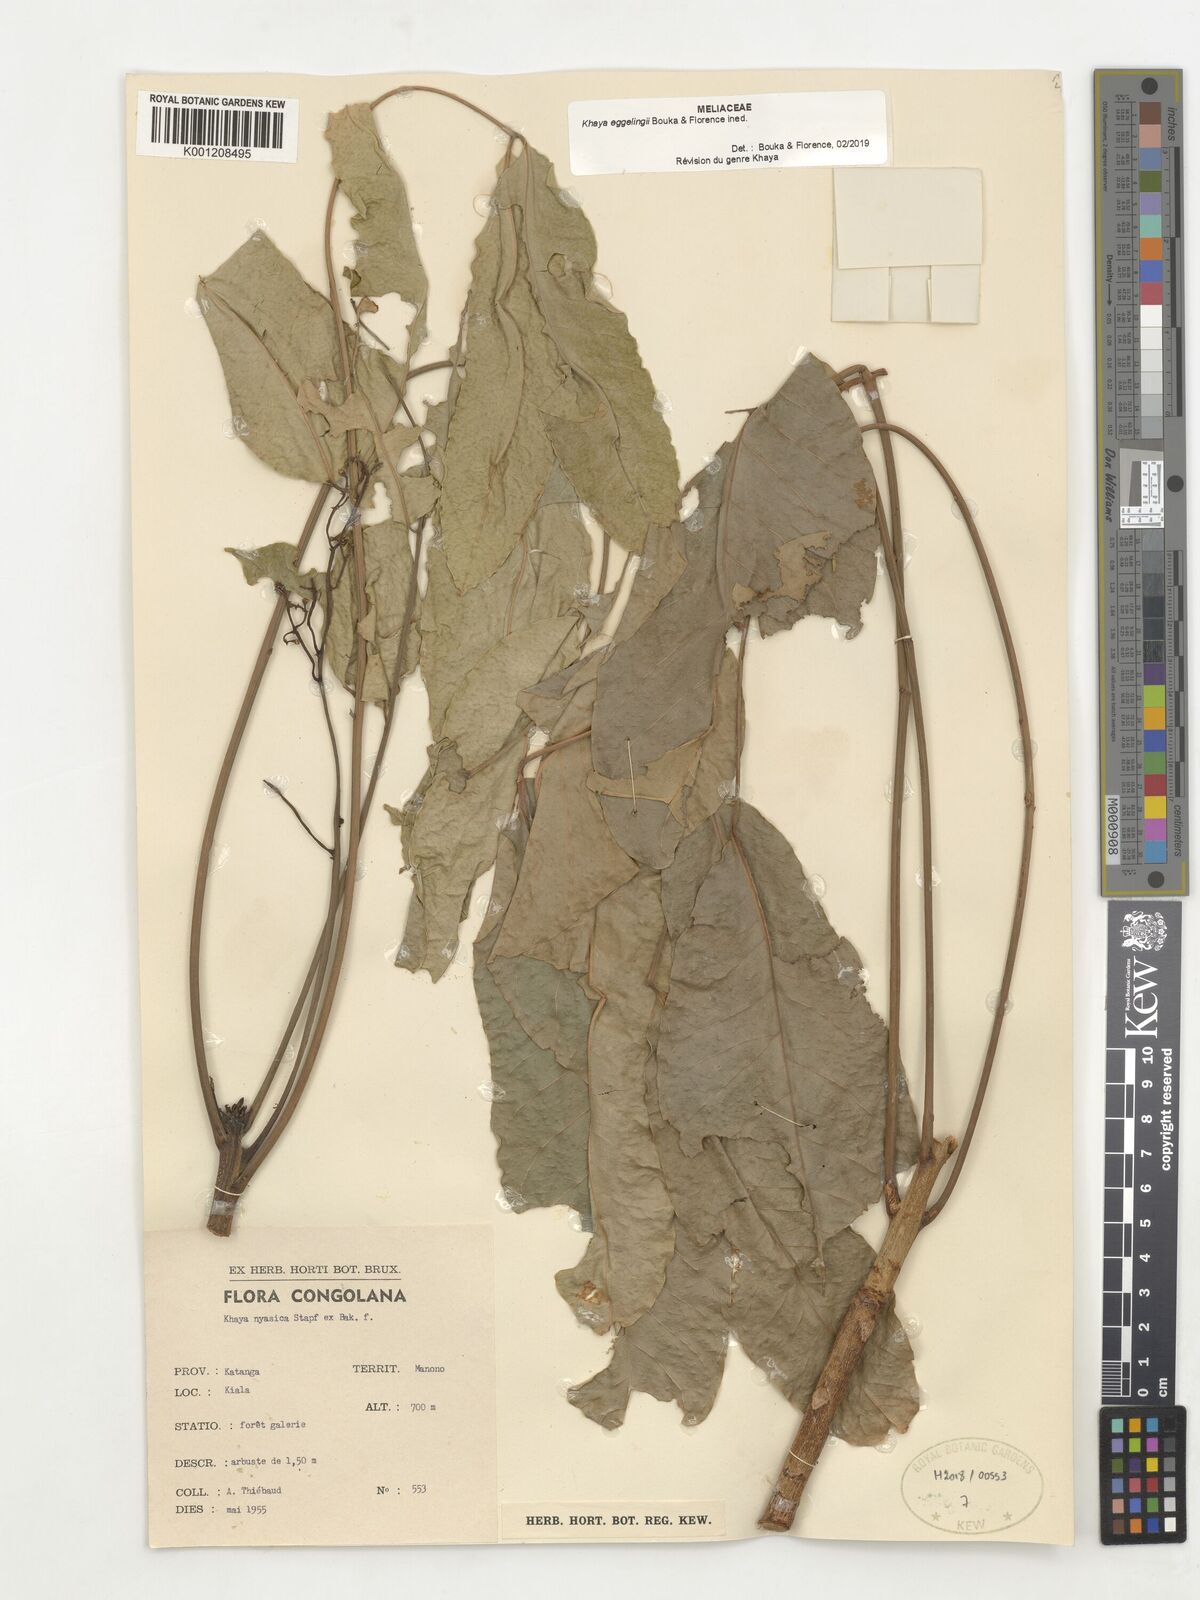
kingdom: Plantae
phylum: Tracheophyta
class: Magnoliopsida
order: Sapindales
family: Meliaceae
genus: Khaya
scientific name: Khaya anthotheca
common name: Nyasaland mahogany
